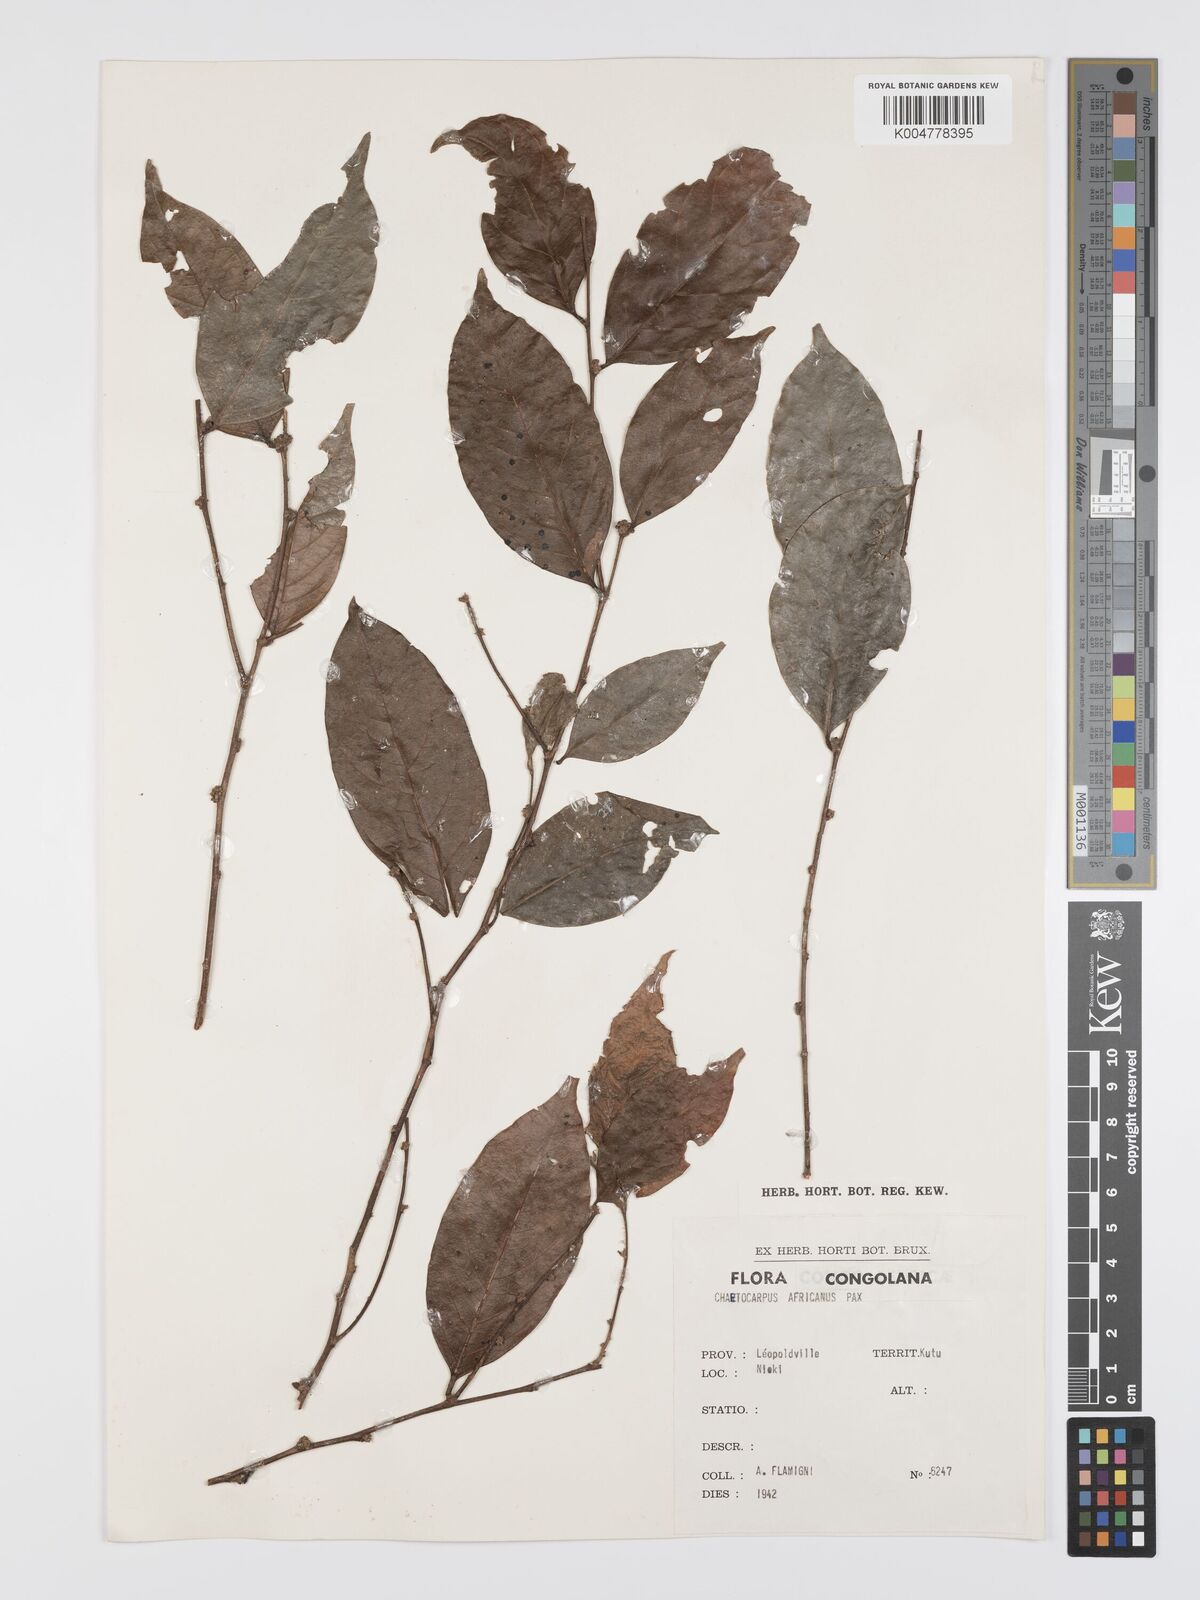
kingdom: Plantae
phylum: Tracheophyta
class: Magnoliopsida
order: Malpighiales
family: Peraceae
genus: Chaetocarpus
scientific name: Chaetocarpus africanus
